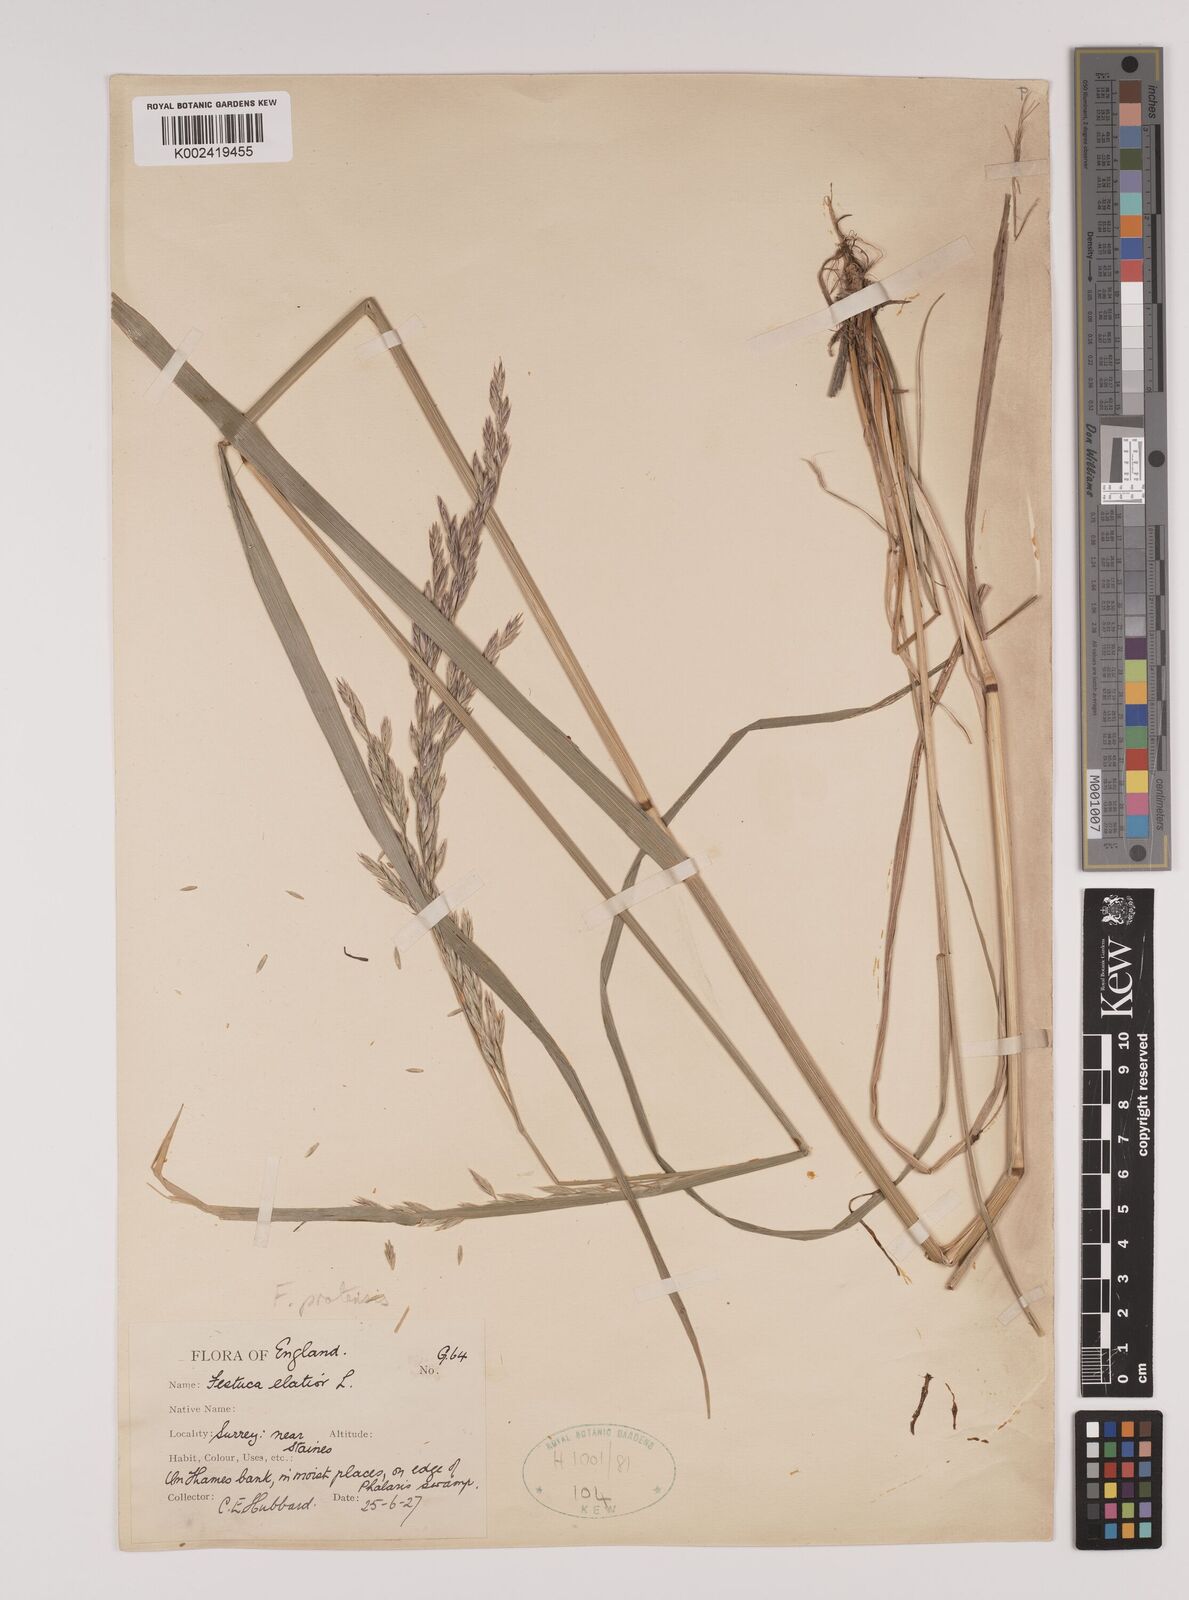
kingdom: Plantae
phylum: Tracheophyta
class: Liliopsida
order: Poales
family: Poaceae
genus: Lolium
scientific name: Lolium pratense
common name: Dover grass
